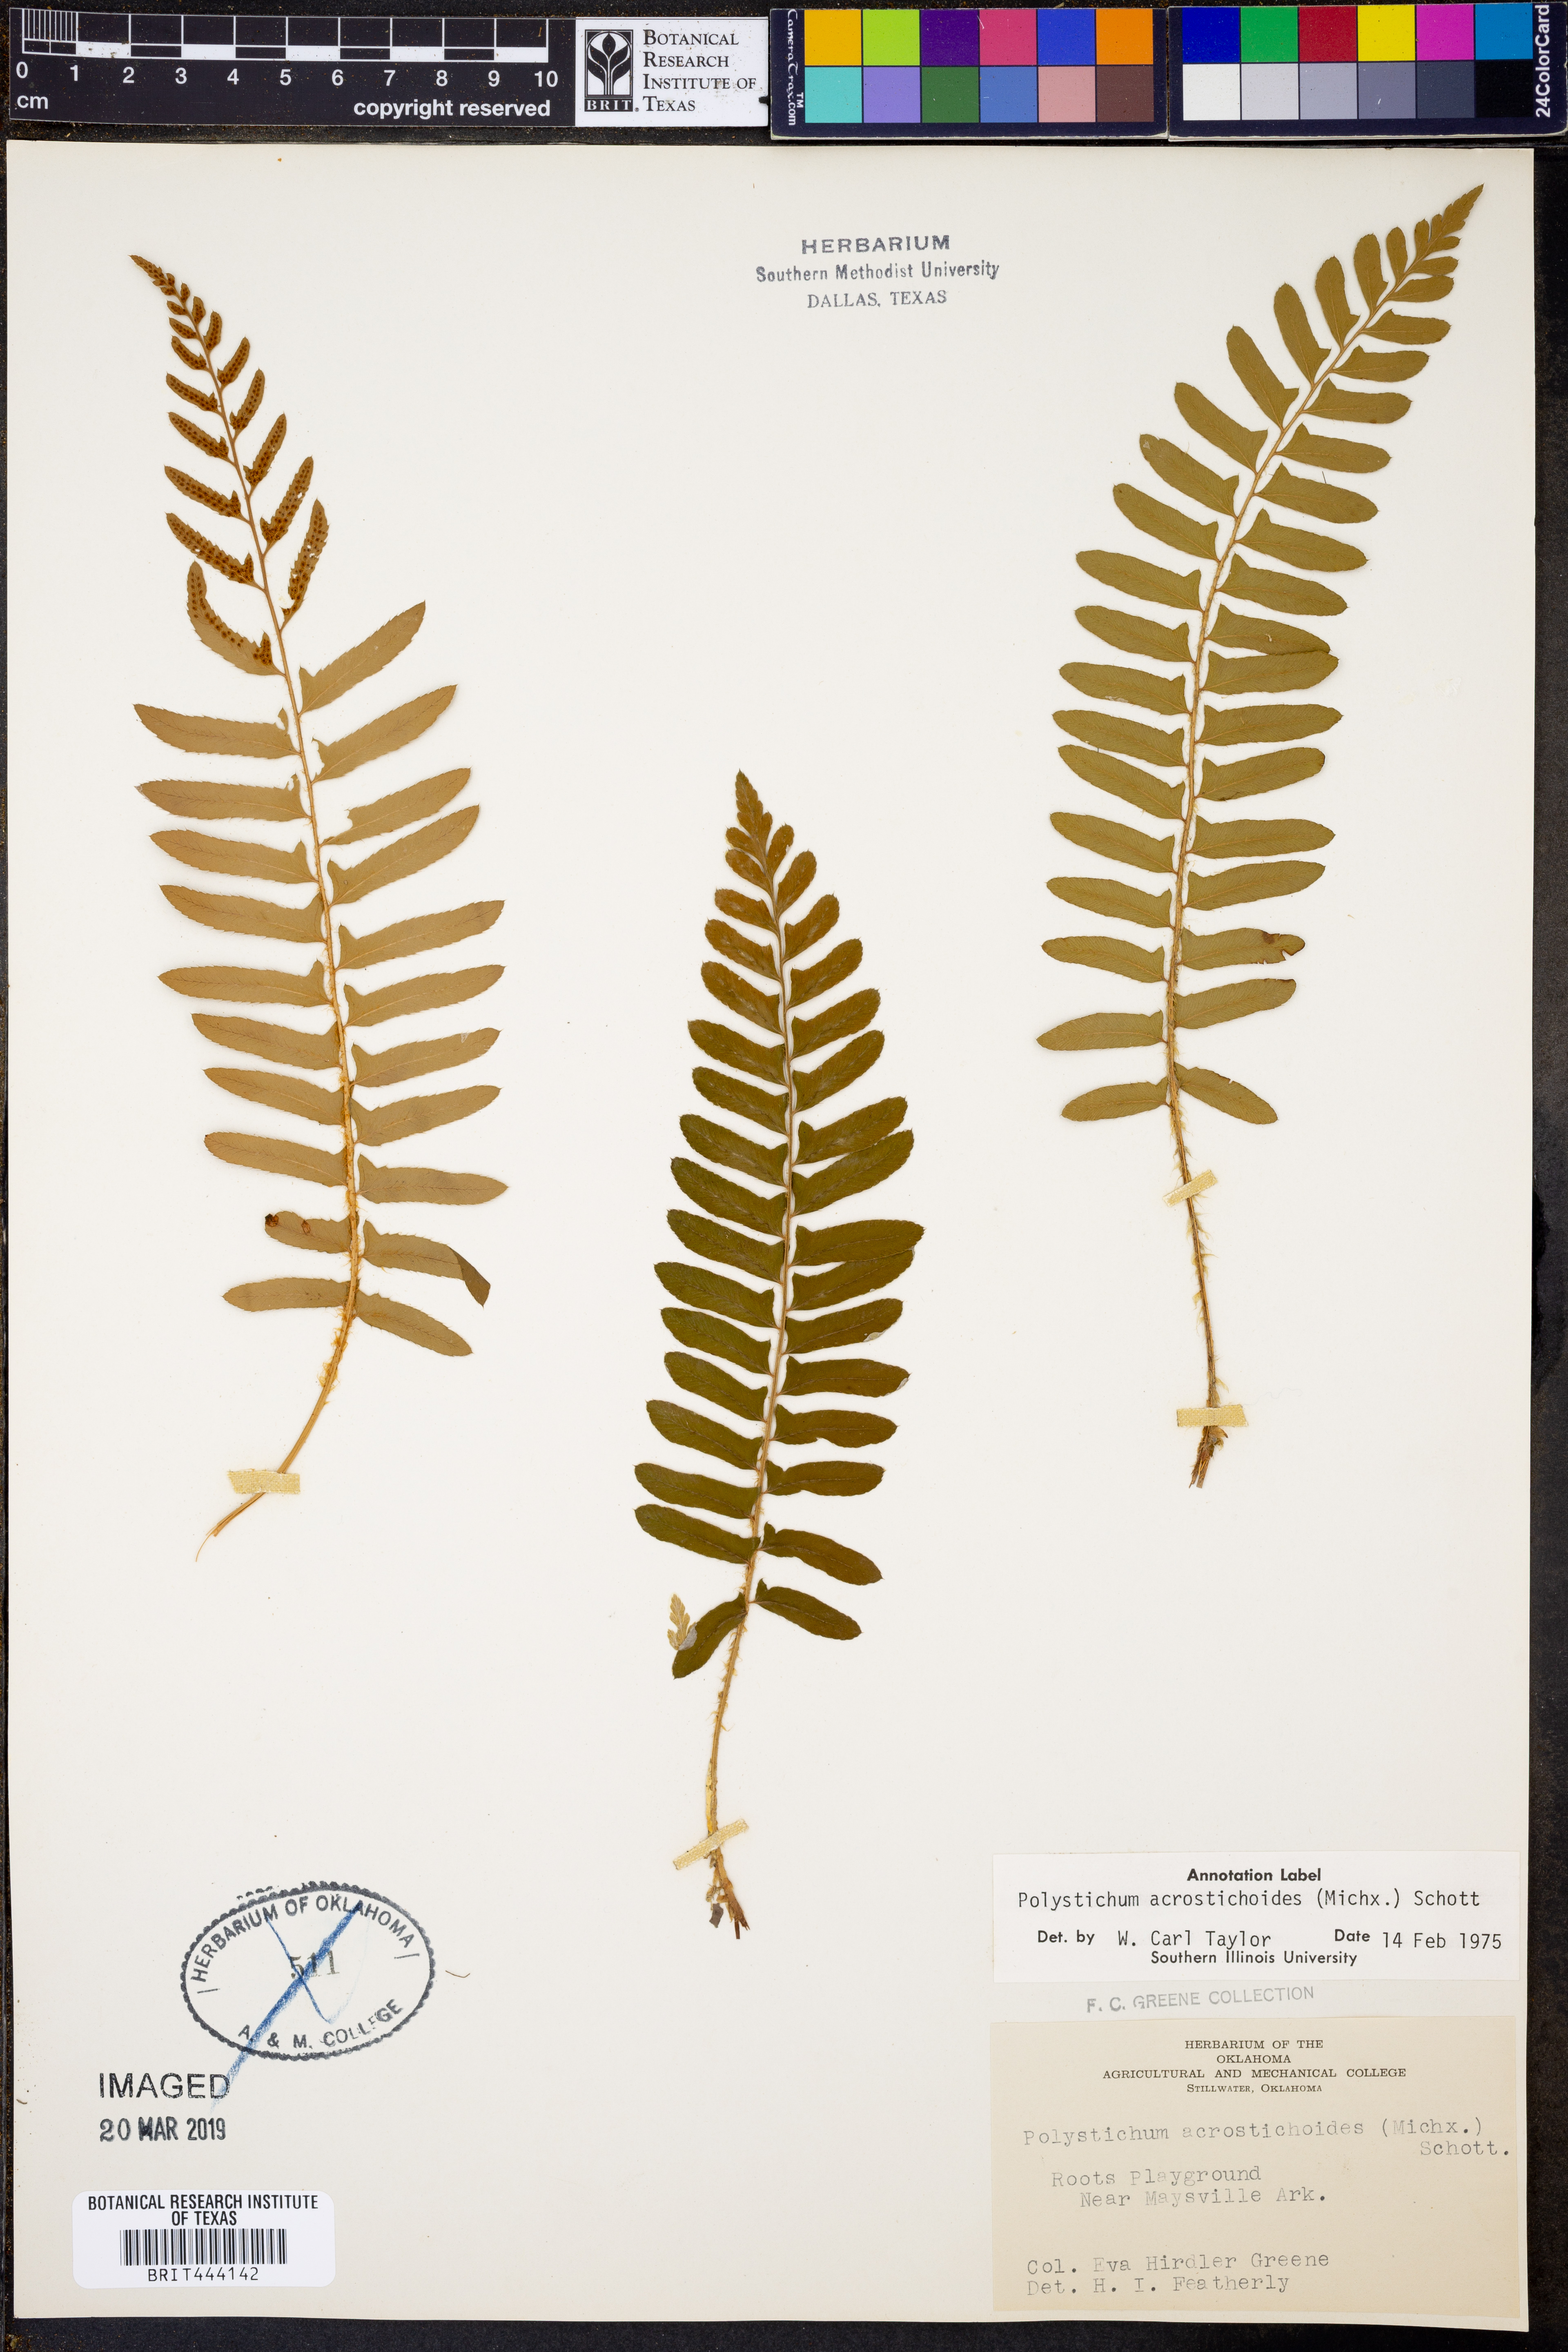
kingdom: Plantae
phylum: Tracheophyta
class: Polypodiopsida
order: Polypodiales
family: Dryopteridaceae
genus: Polystichum
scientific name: Polystichum acrostichoides
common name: Christmas fern
